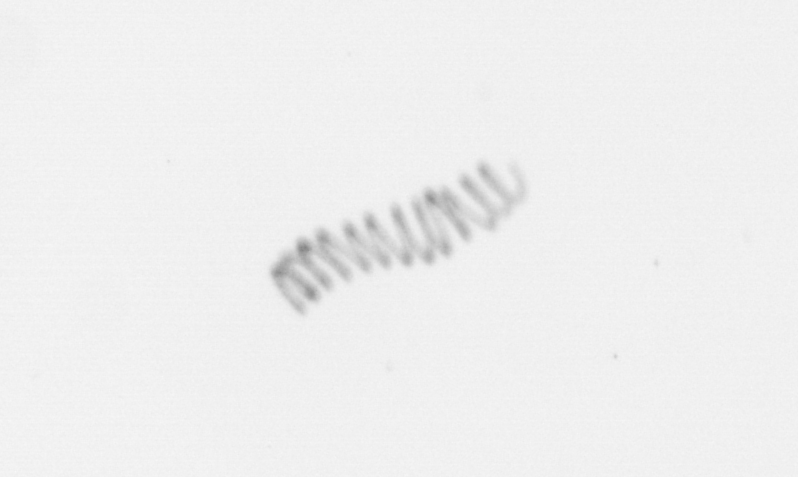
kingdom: Chromista
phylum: Ochrophyta
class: Bacillariophyceae
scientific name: Bacillariophyceae
